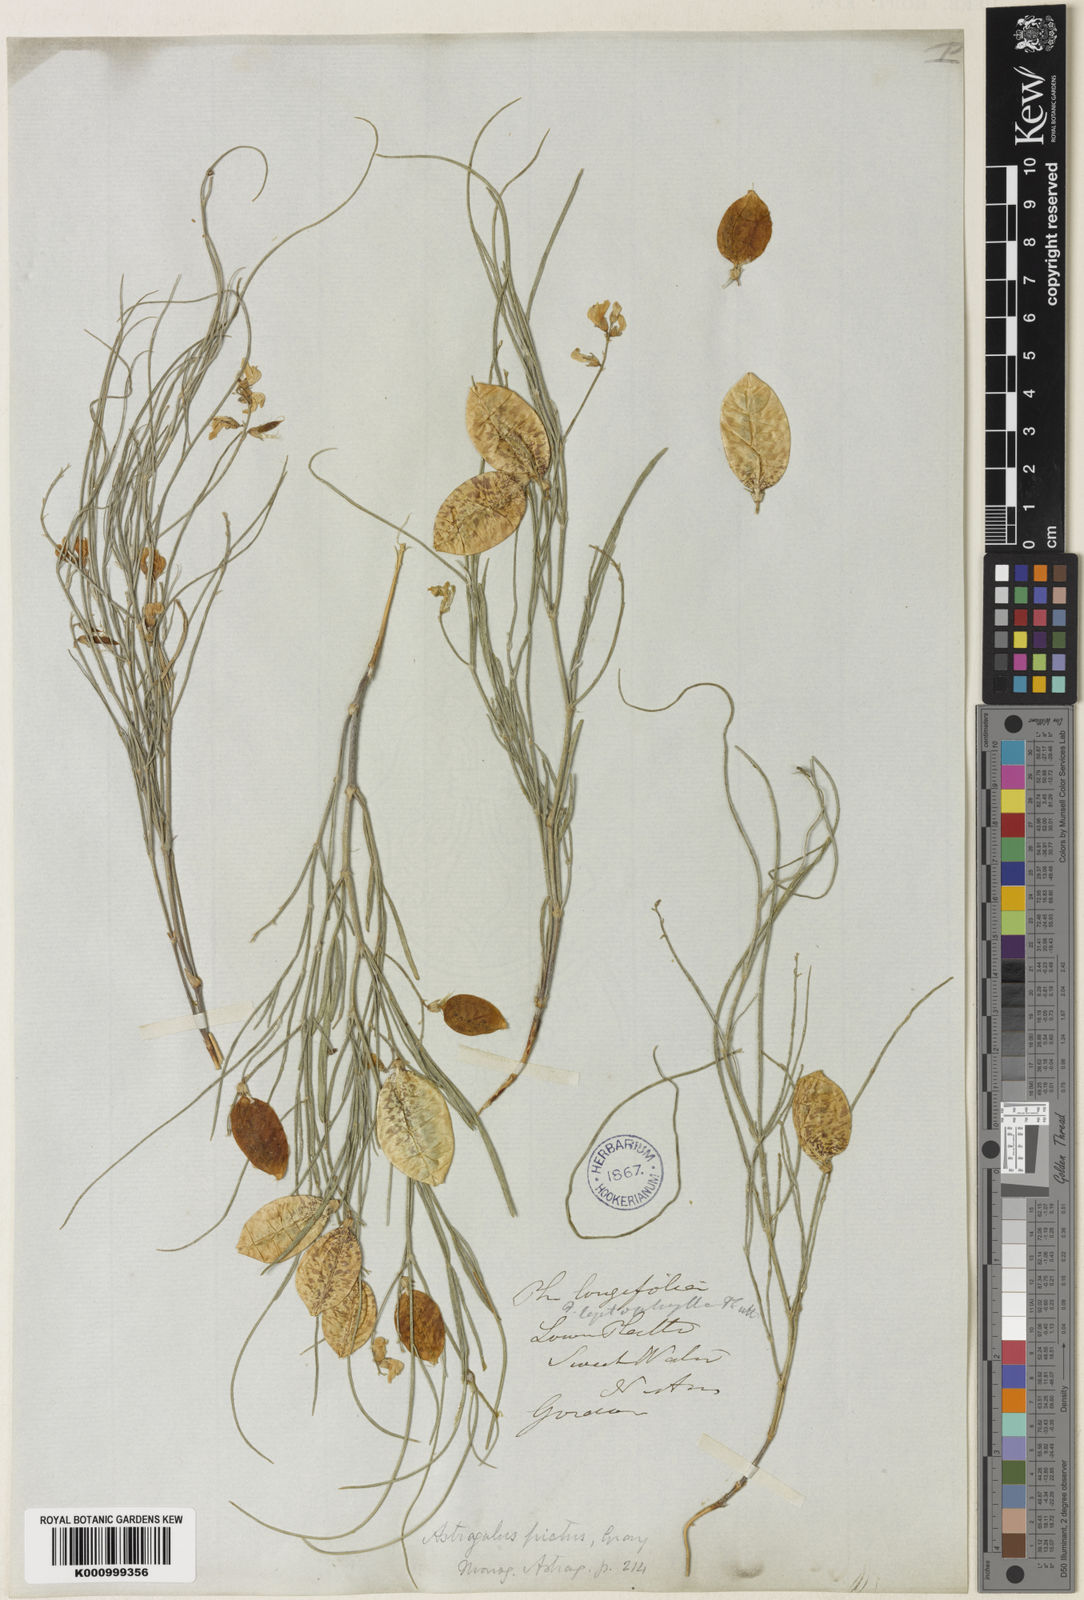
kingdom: Plantae
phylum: Tracheophyta
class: Magnoliopsida
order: Fabales
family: Fabaceae
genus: Astragalus
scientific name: Astragalus ceramicus
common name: Painted milk-vetch
